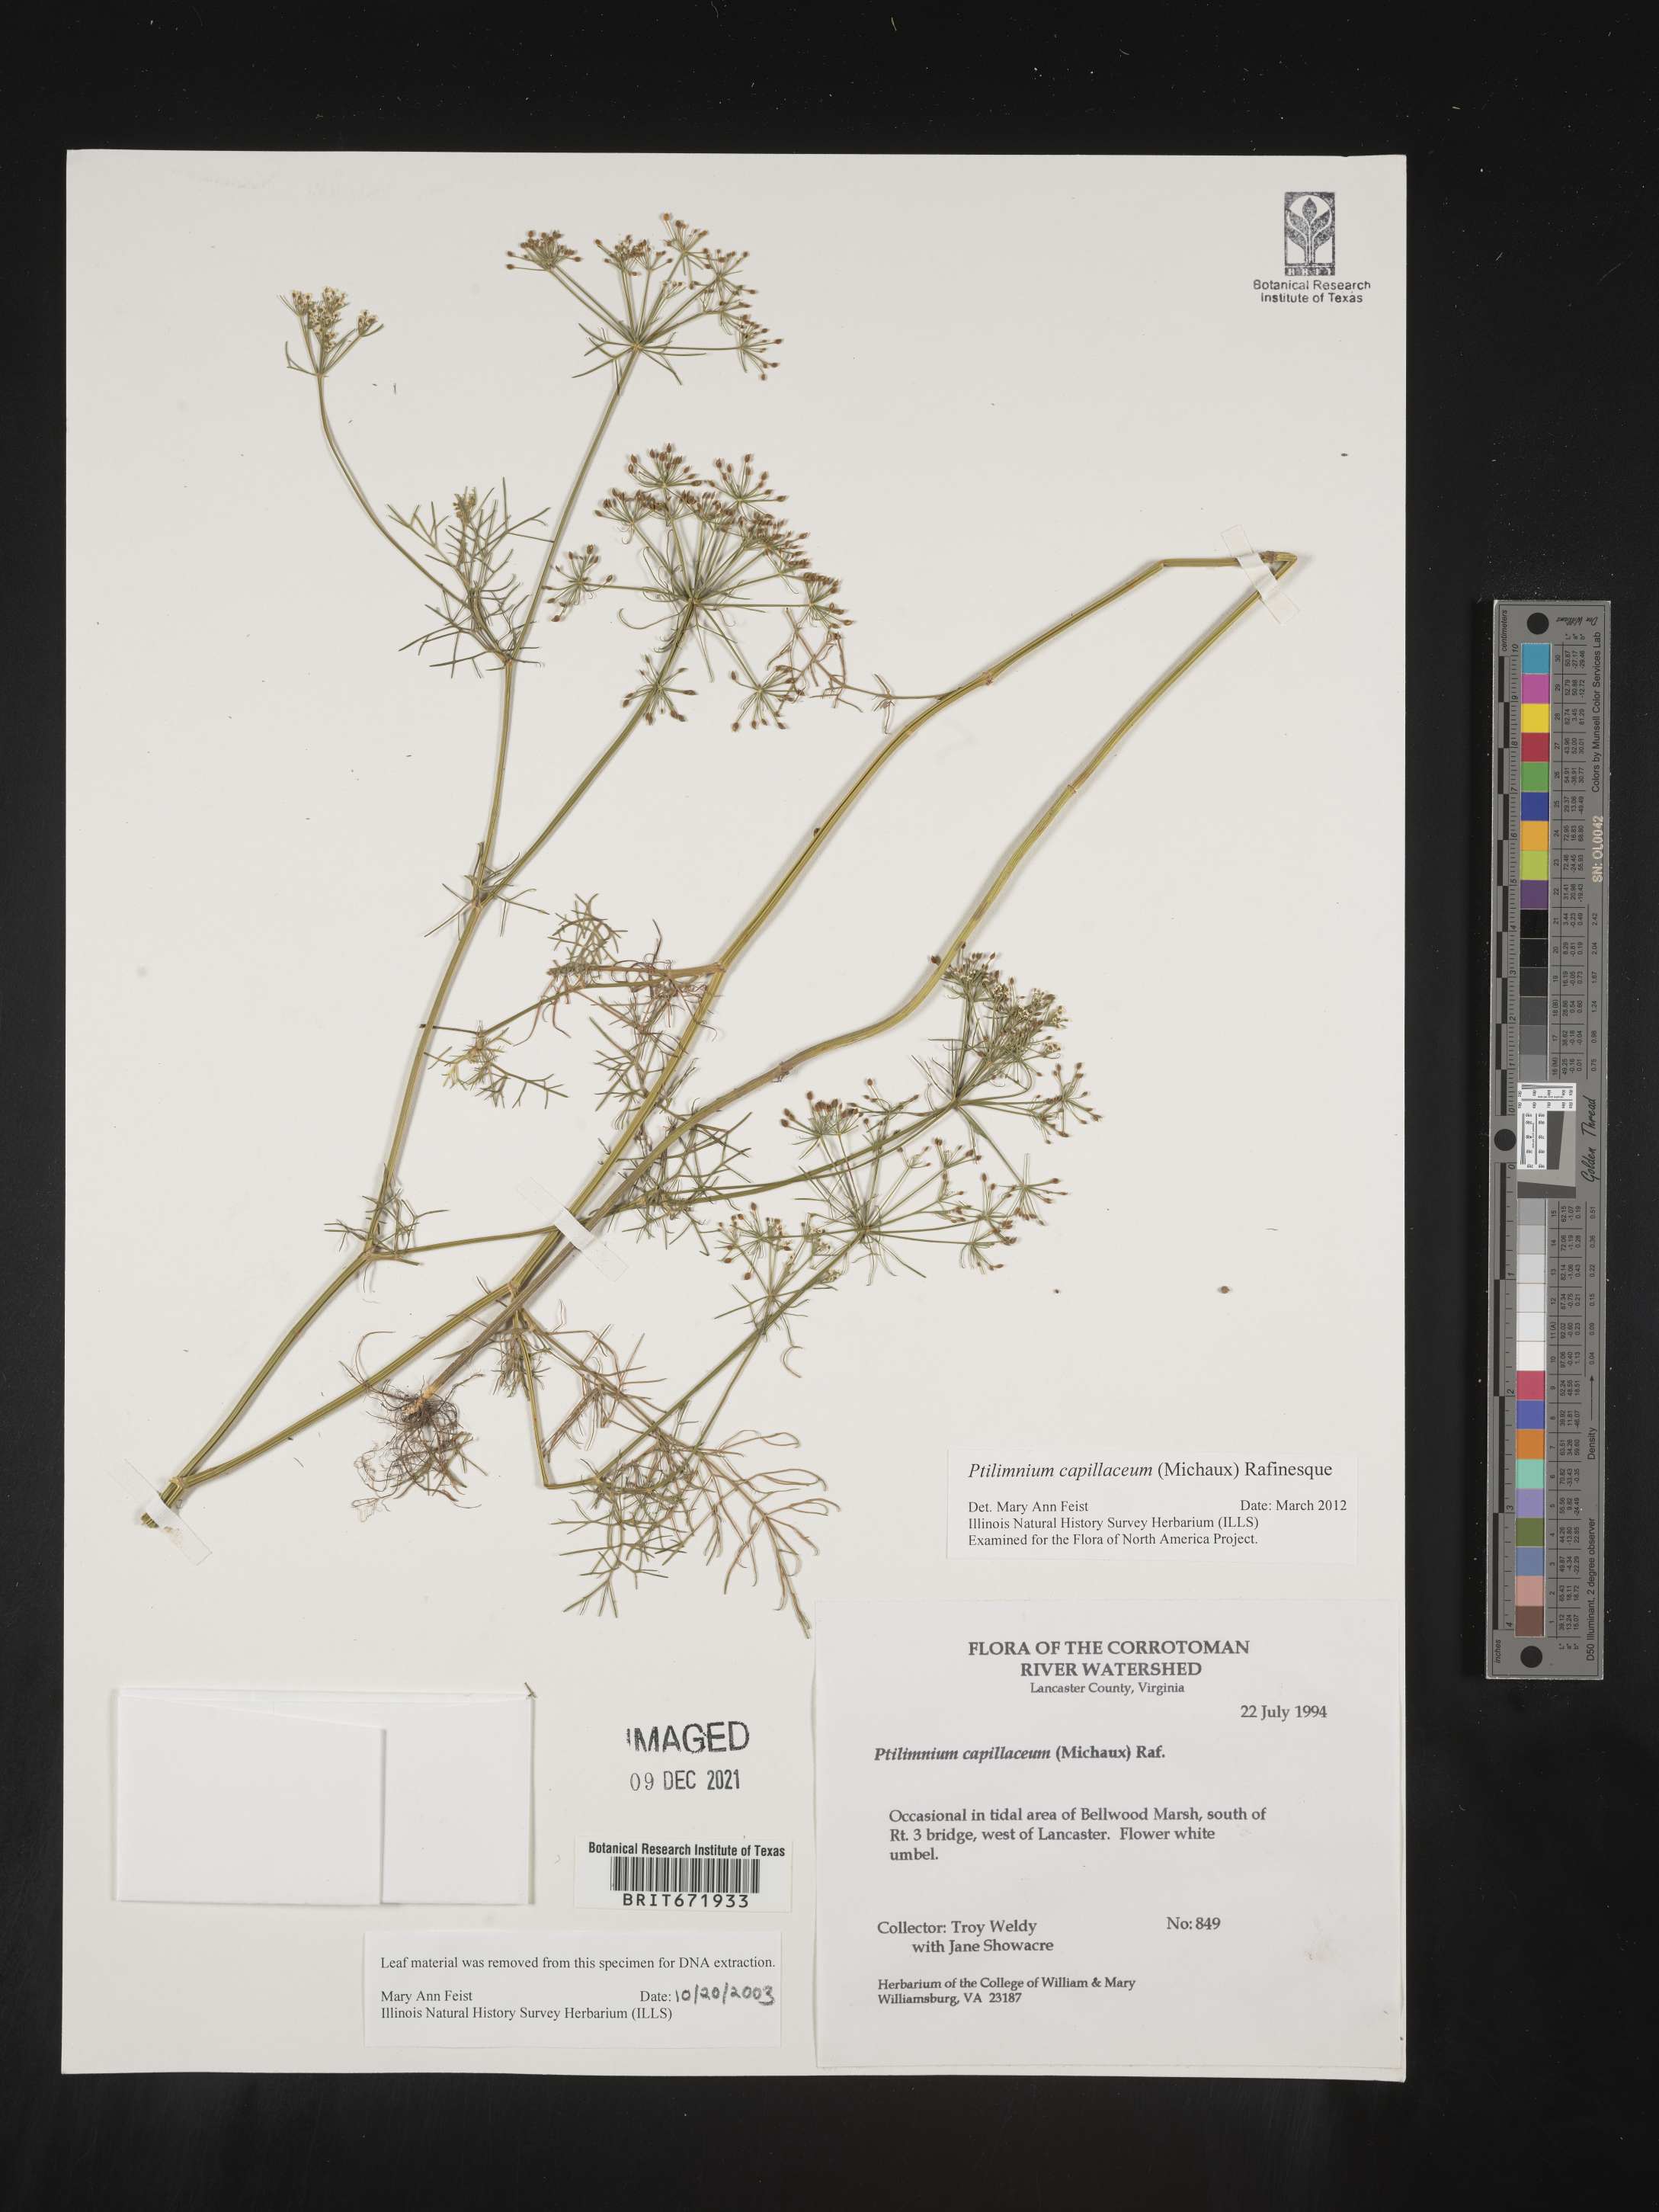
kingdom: Plantae
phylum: Tracheophyta
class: Magnoliopsida
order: Apiales
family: Apiaceae
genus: Ptilimnium
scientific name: Ptilimnium capillaceum
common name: Herbwilliam
